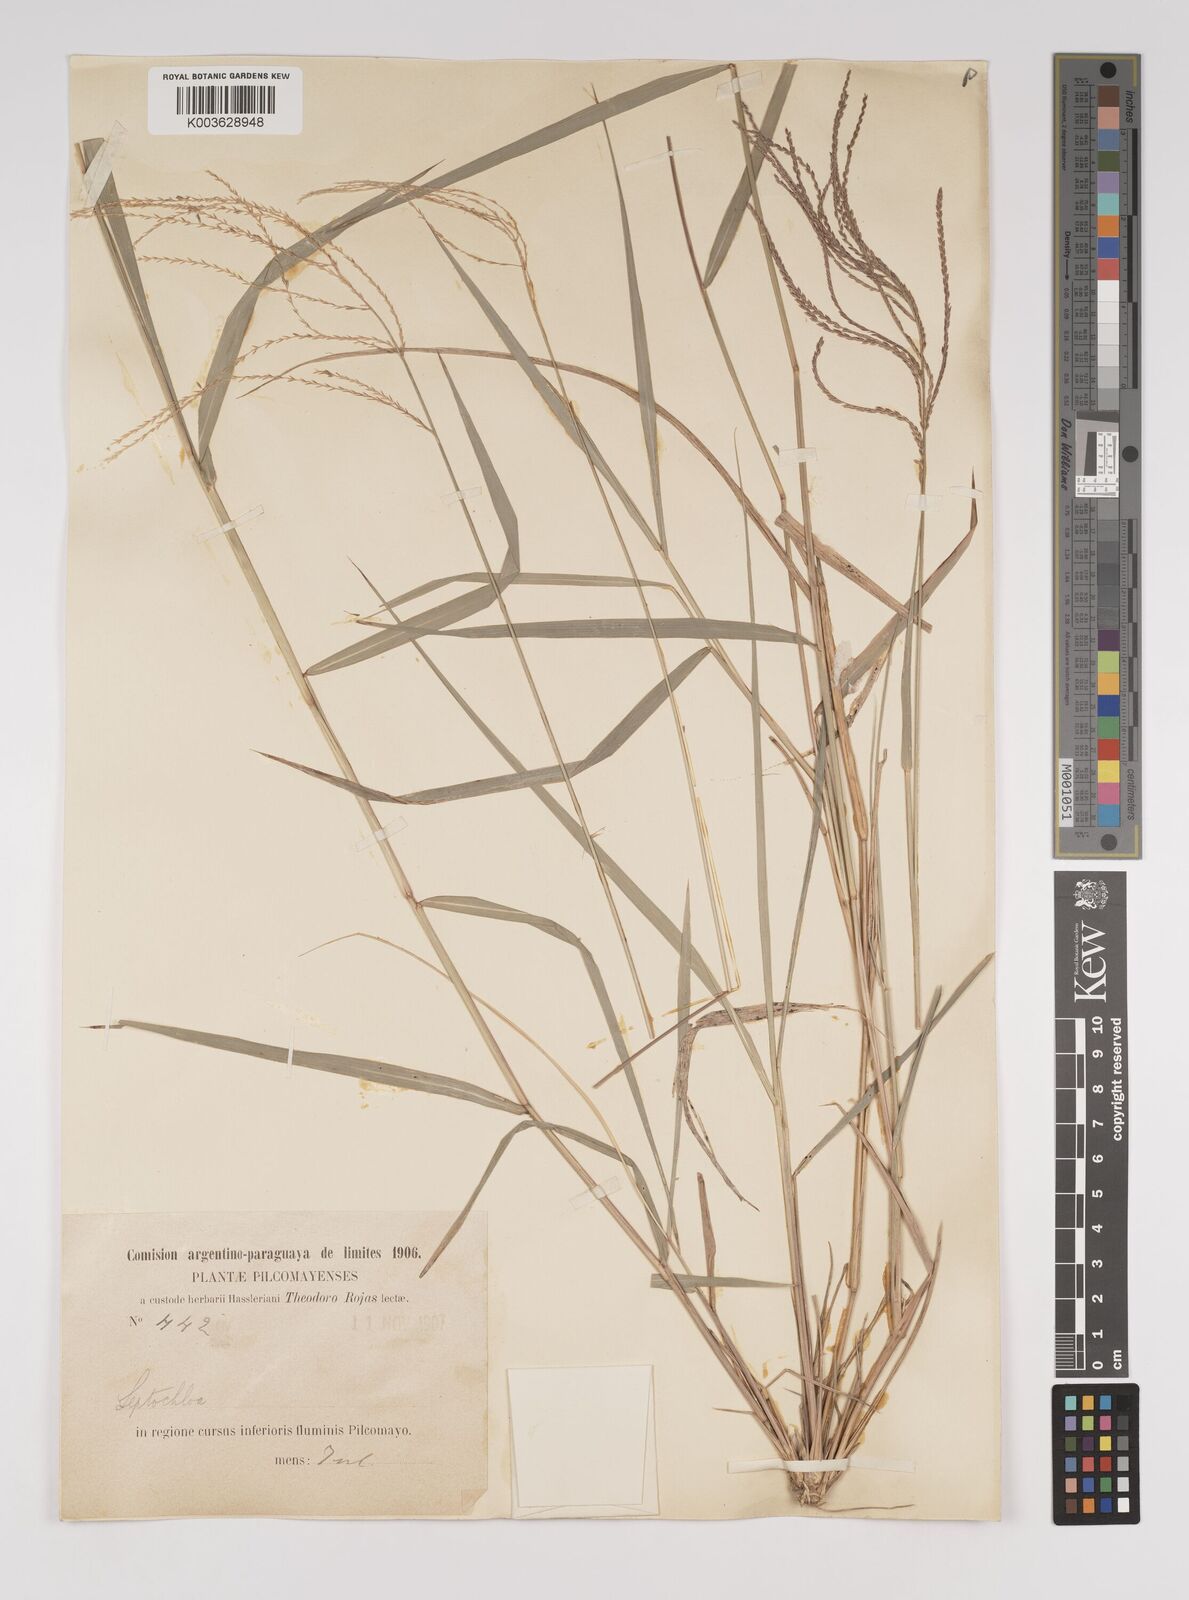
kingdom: Plantae
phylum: Tracheophyta
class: Liliopsida
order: Poales
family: Poaceae
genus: Leptochloa
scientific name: Leptochloa virgata
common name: Tropical sprangletop
